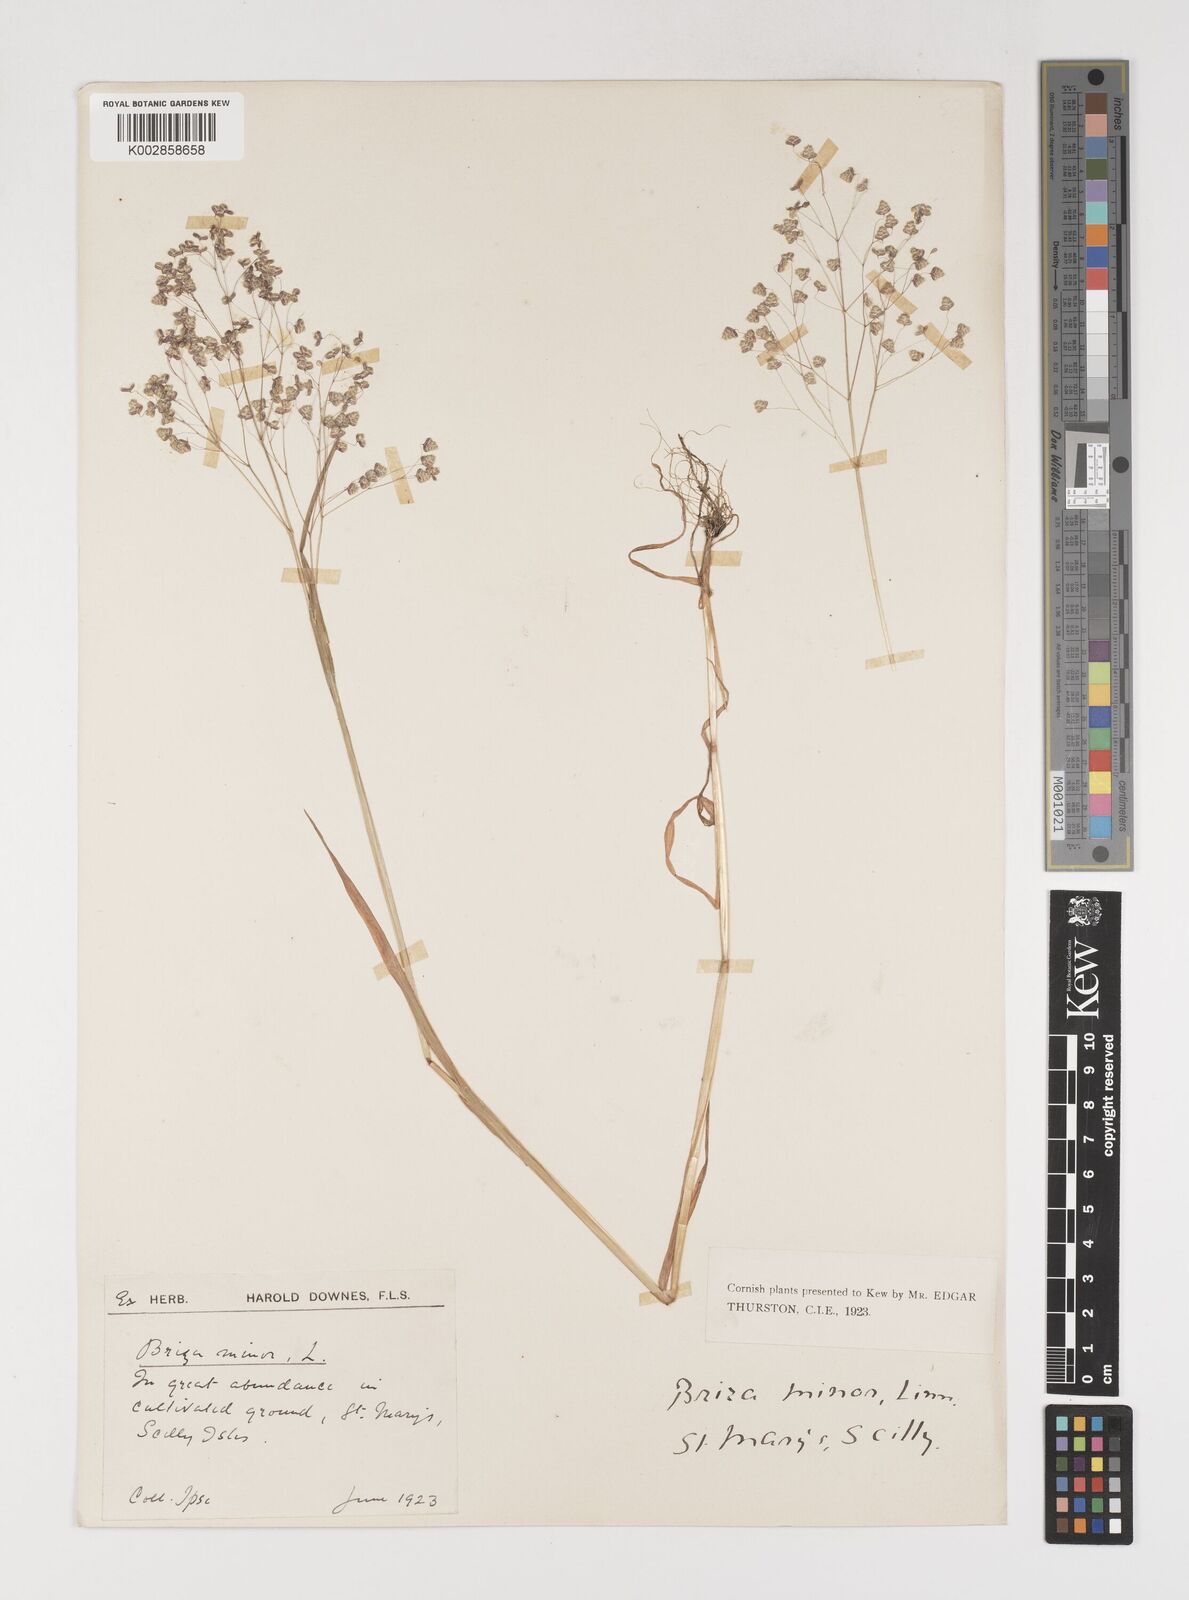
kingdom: Plantae
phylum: Tracheophyta
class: Liliopsida
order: Poales
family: Poaceae
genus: Briza
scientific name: Briza minor
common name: Lesser quaking-grass
